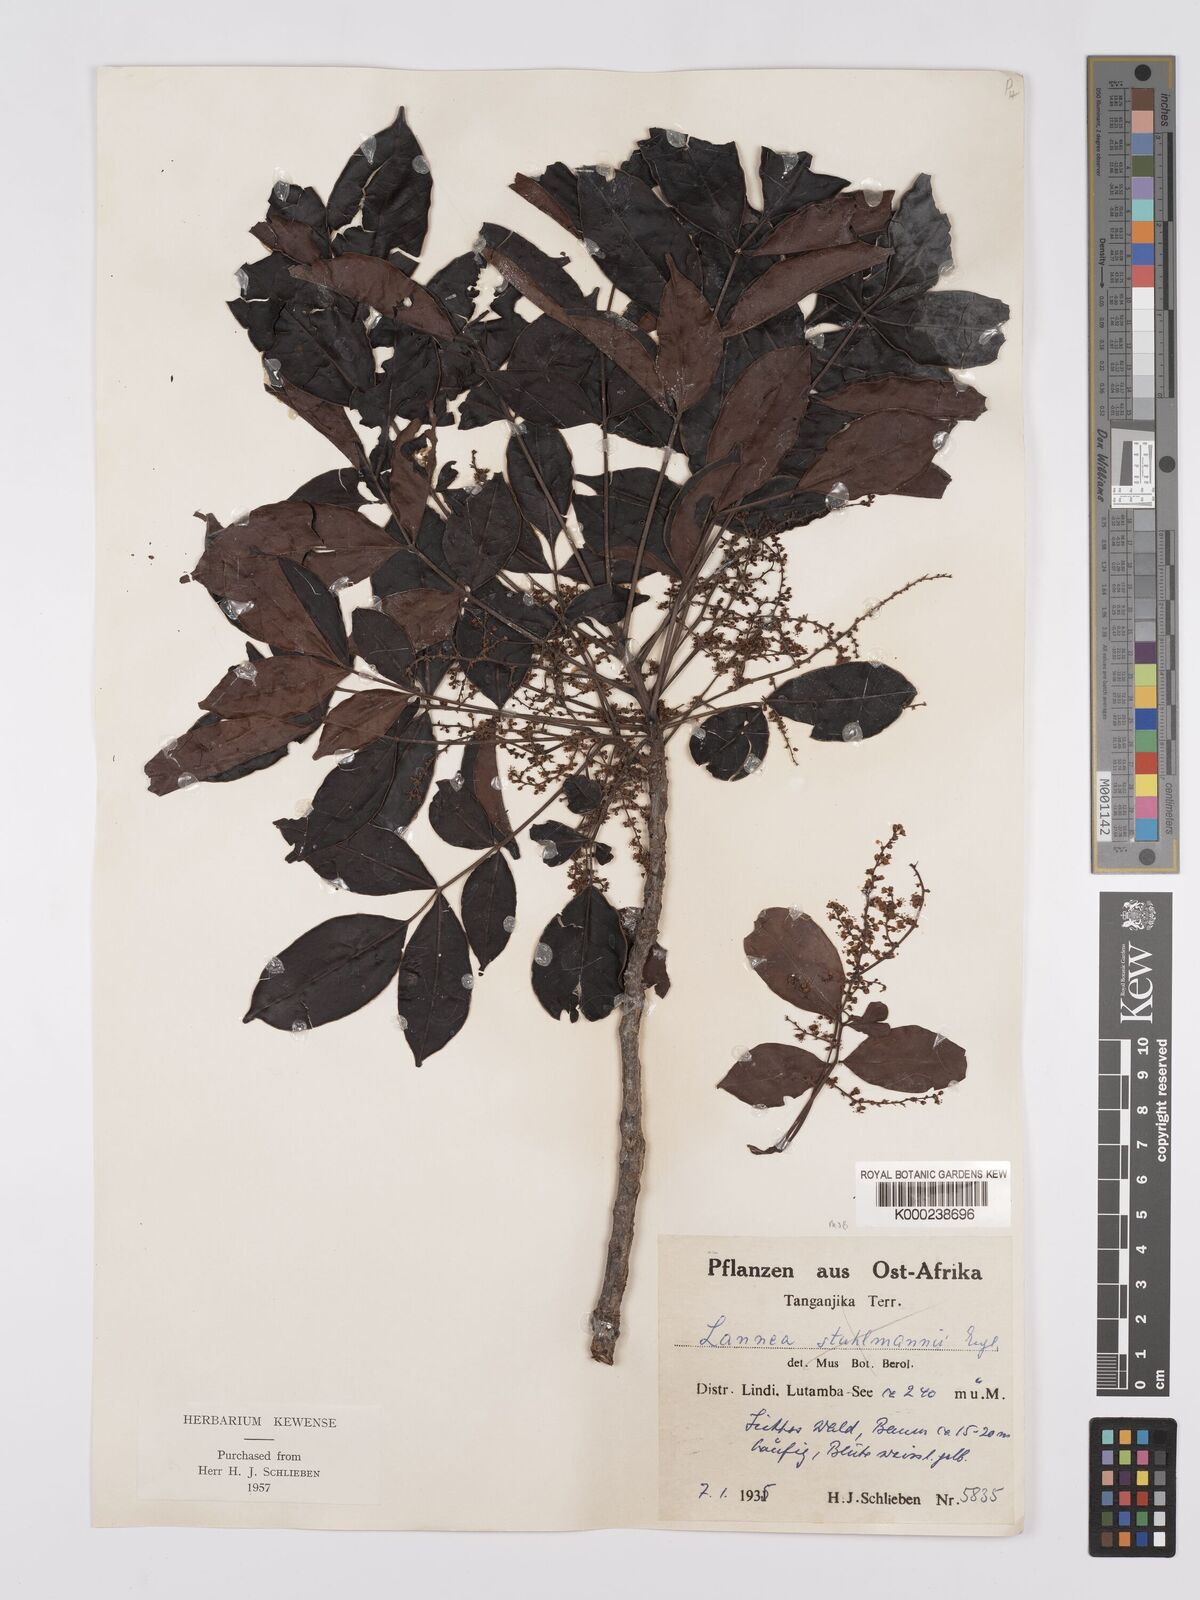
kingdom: Plantae
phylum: Tracheophyta
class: Magnoliopsida
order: Sapindales
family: Anacardiaceae
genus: Lannea
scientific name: Lannea schweinfurthii
